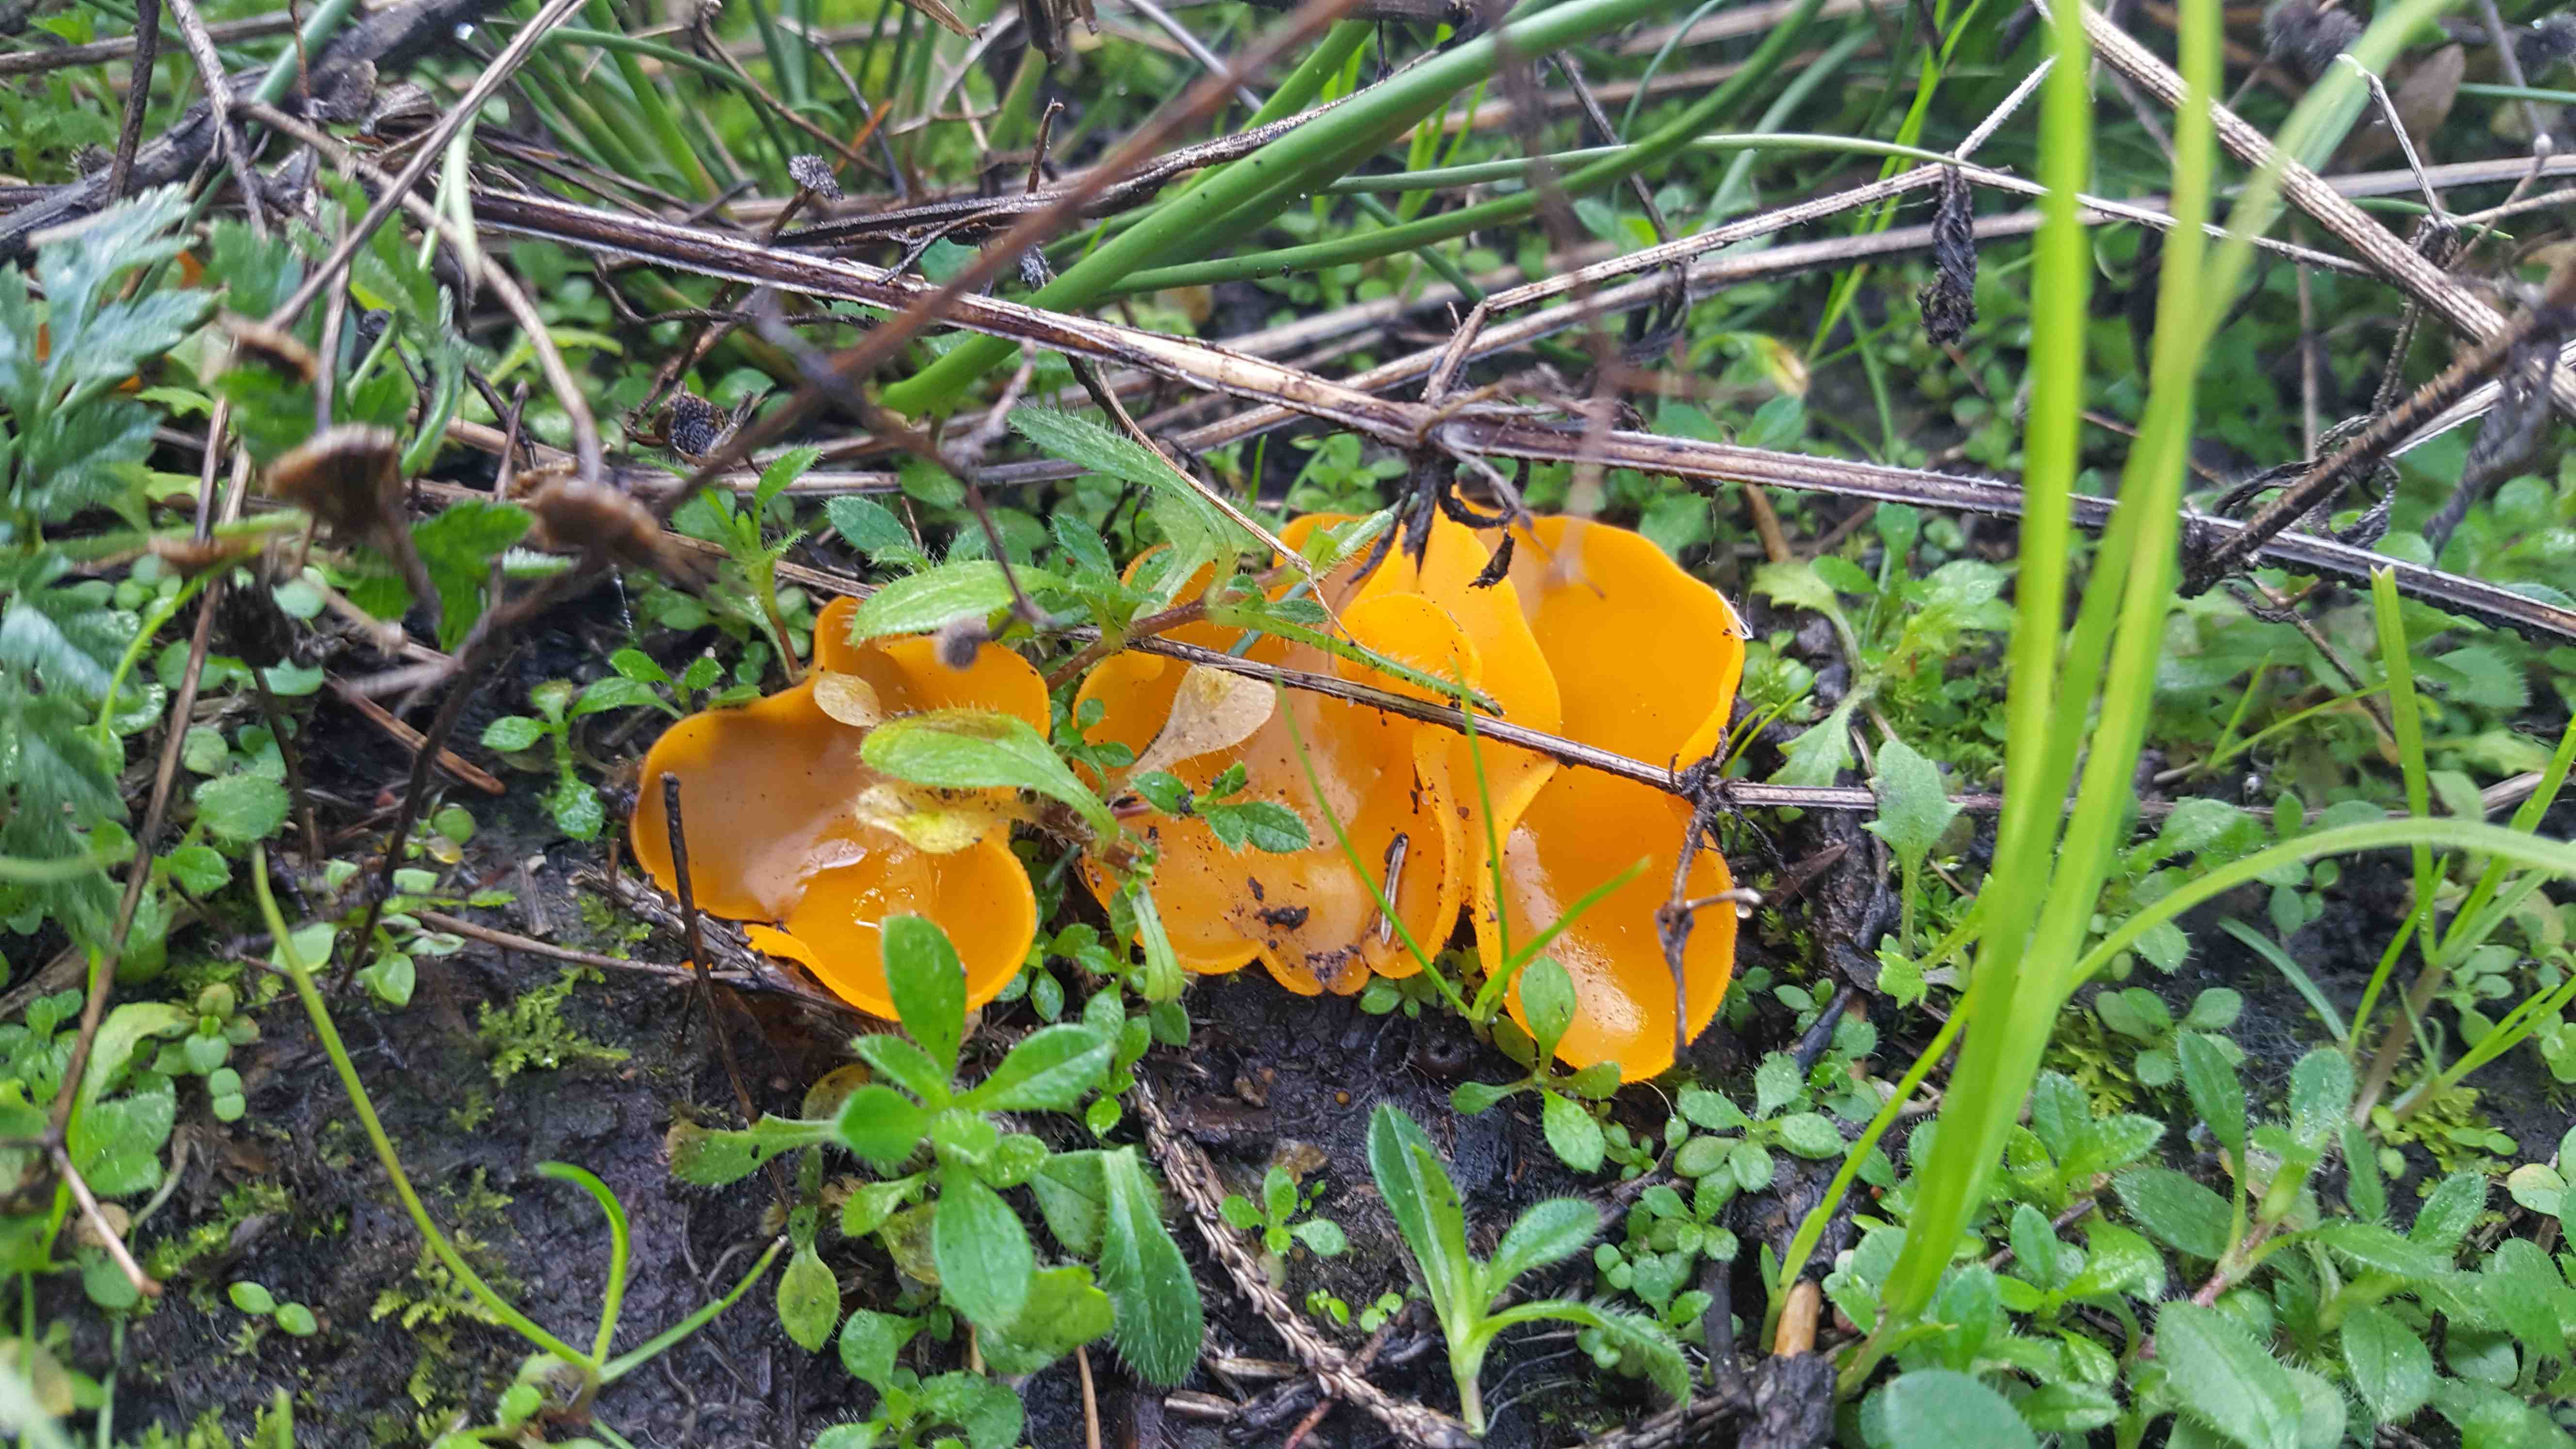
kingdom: Fungi
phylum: Ascomycota
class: Pezizomycetes
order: Pezizales
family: Pyronemataceae
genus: Aleuria
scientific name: Aleuria aurantia
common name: almindelig orangebæger
